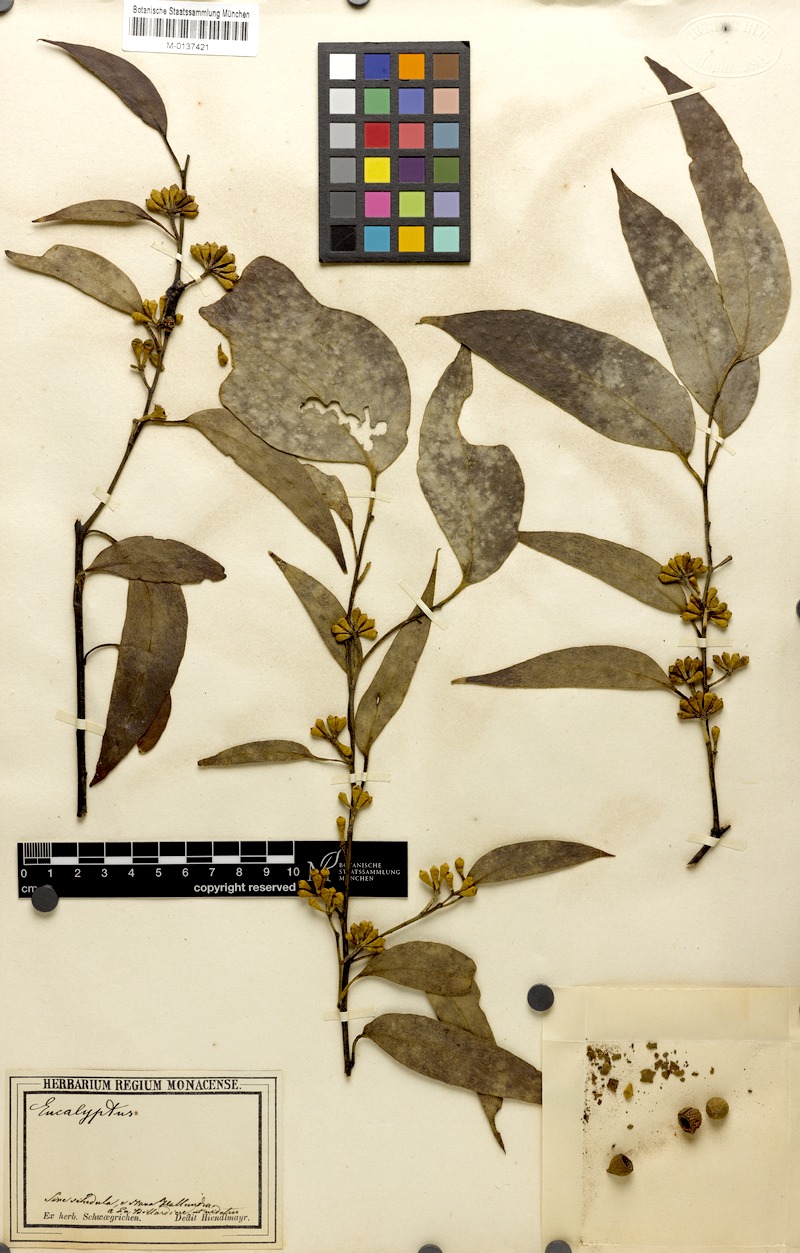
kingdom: Plantae
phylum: Tracheophyta
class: Magnoliopsida
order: Myrtales
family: Myrtaceae
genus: Eucalyptus
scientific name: Eucalyptus
